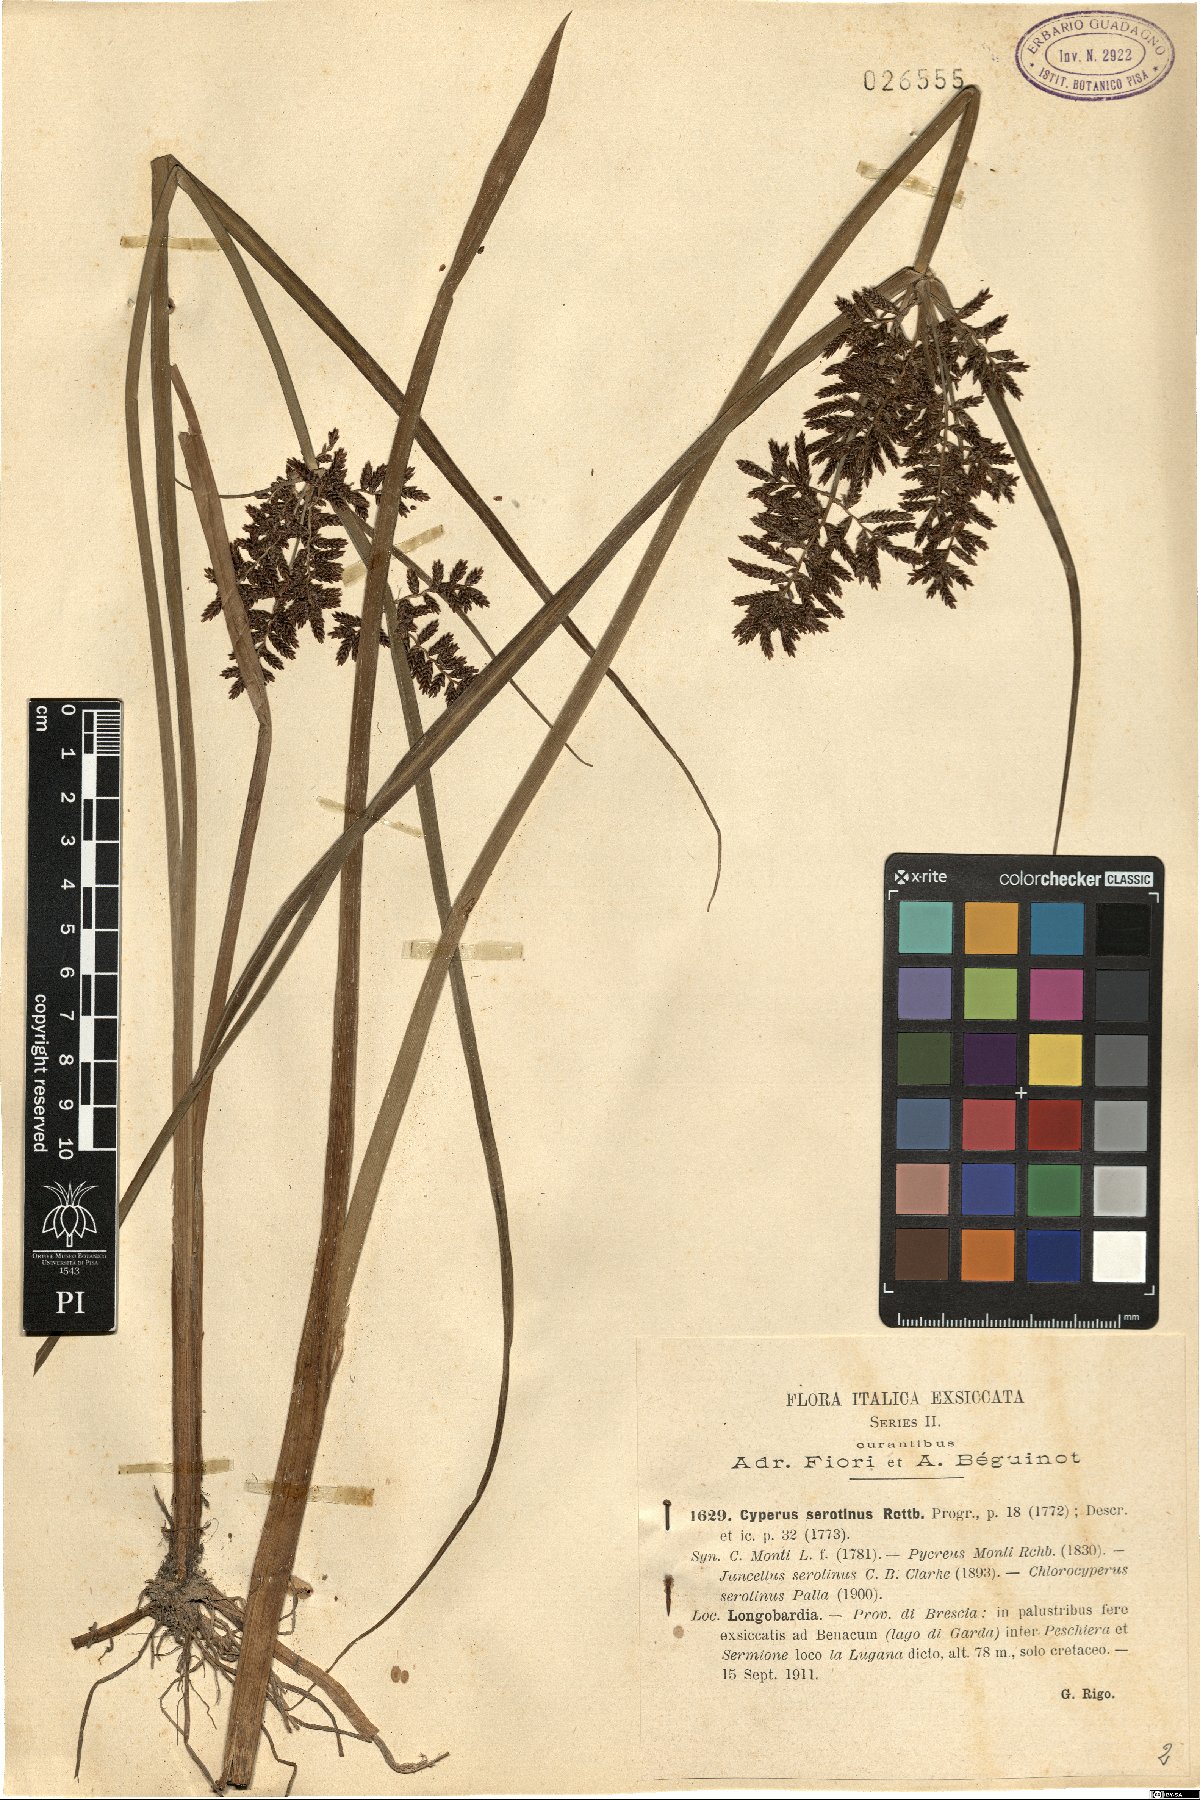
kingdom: Plantae
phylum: Tracheophyta
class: Liliopsida
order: Poales
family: Cyperaceae
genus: Cyperus
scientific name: Cyperus serotinus
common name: Tidalmarsh flatsedge
